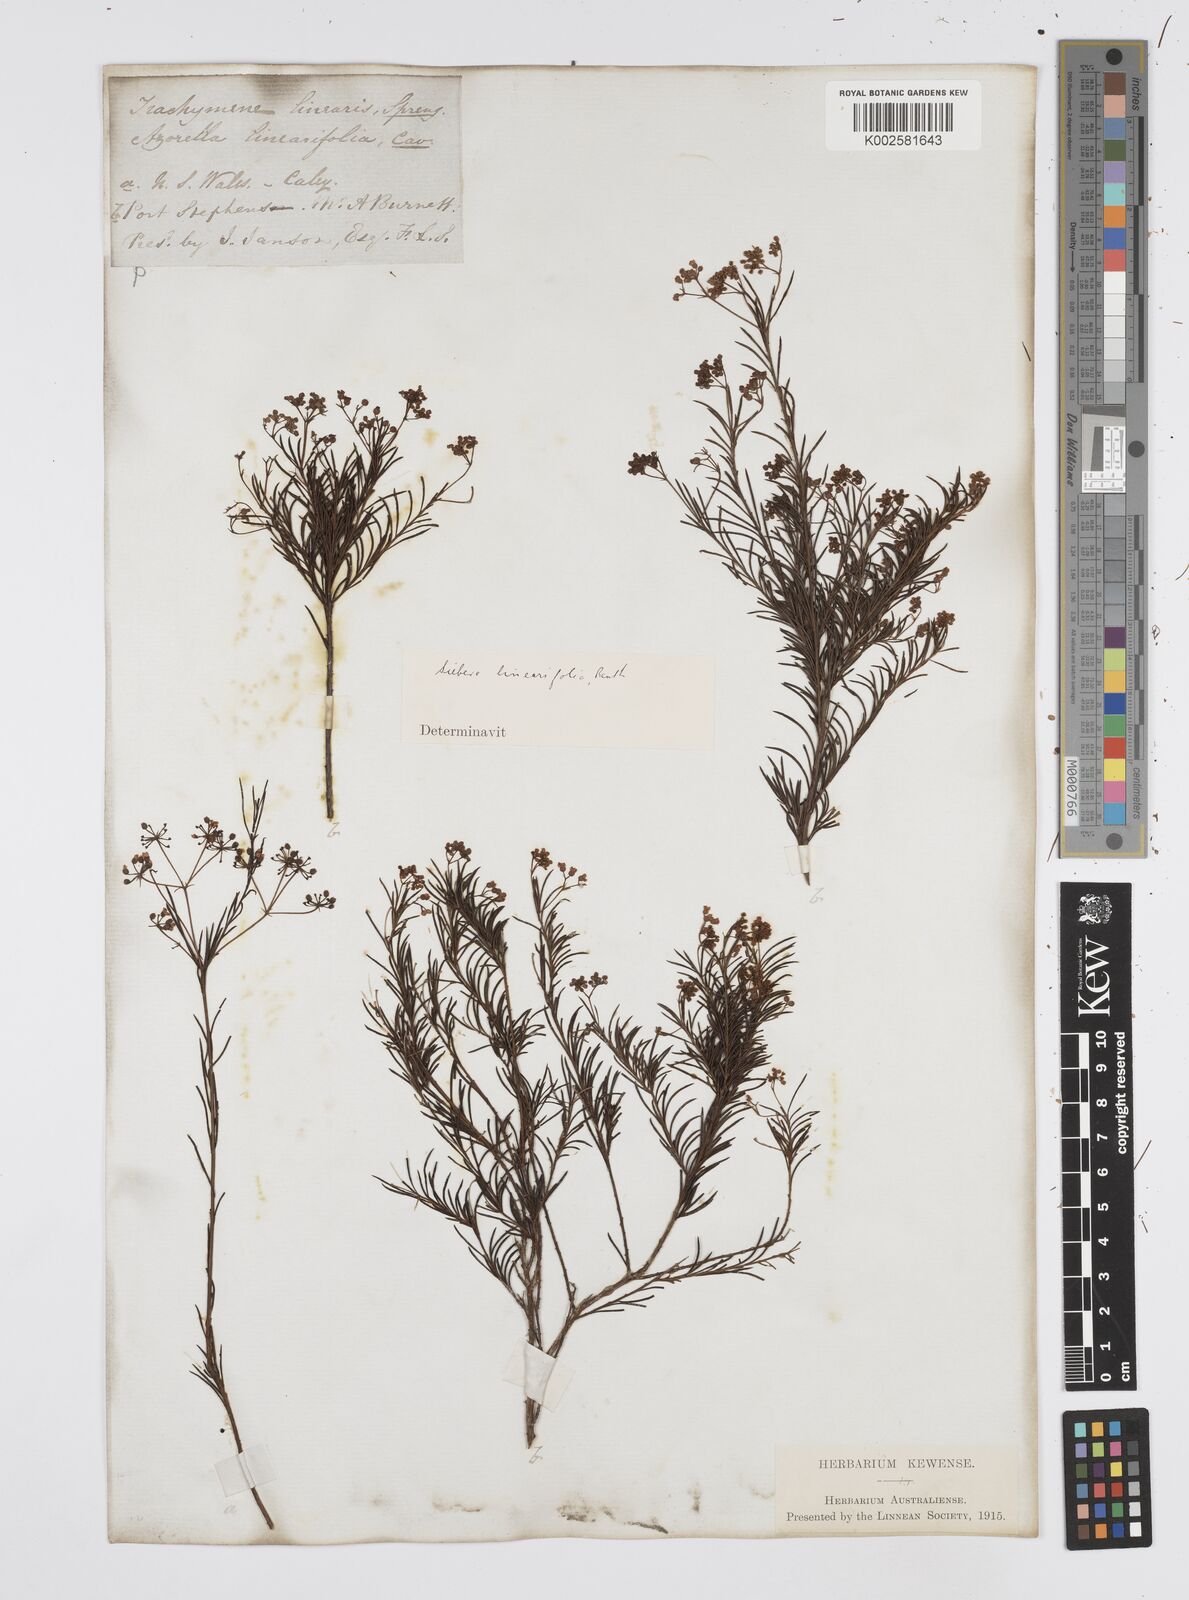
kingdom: Plantae
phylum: Tracheophyta
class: Magnoliopsida
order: Apiales
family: Apiaceae
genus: Platysace
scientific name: Platysace linearifolia
